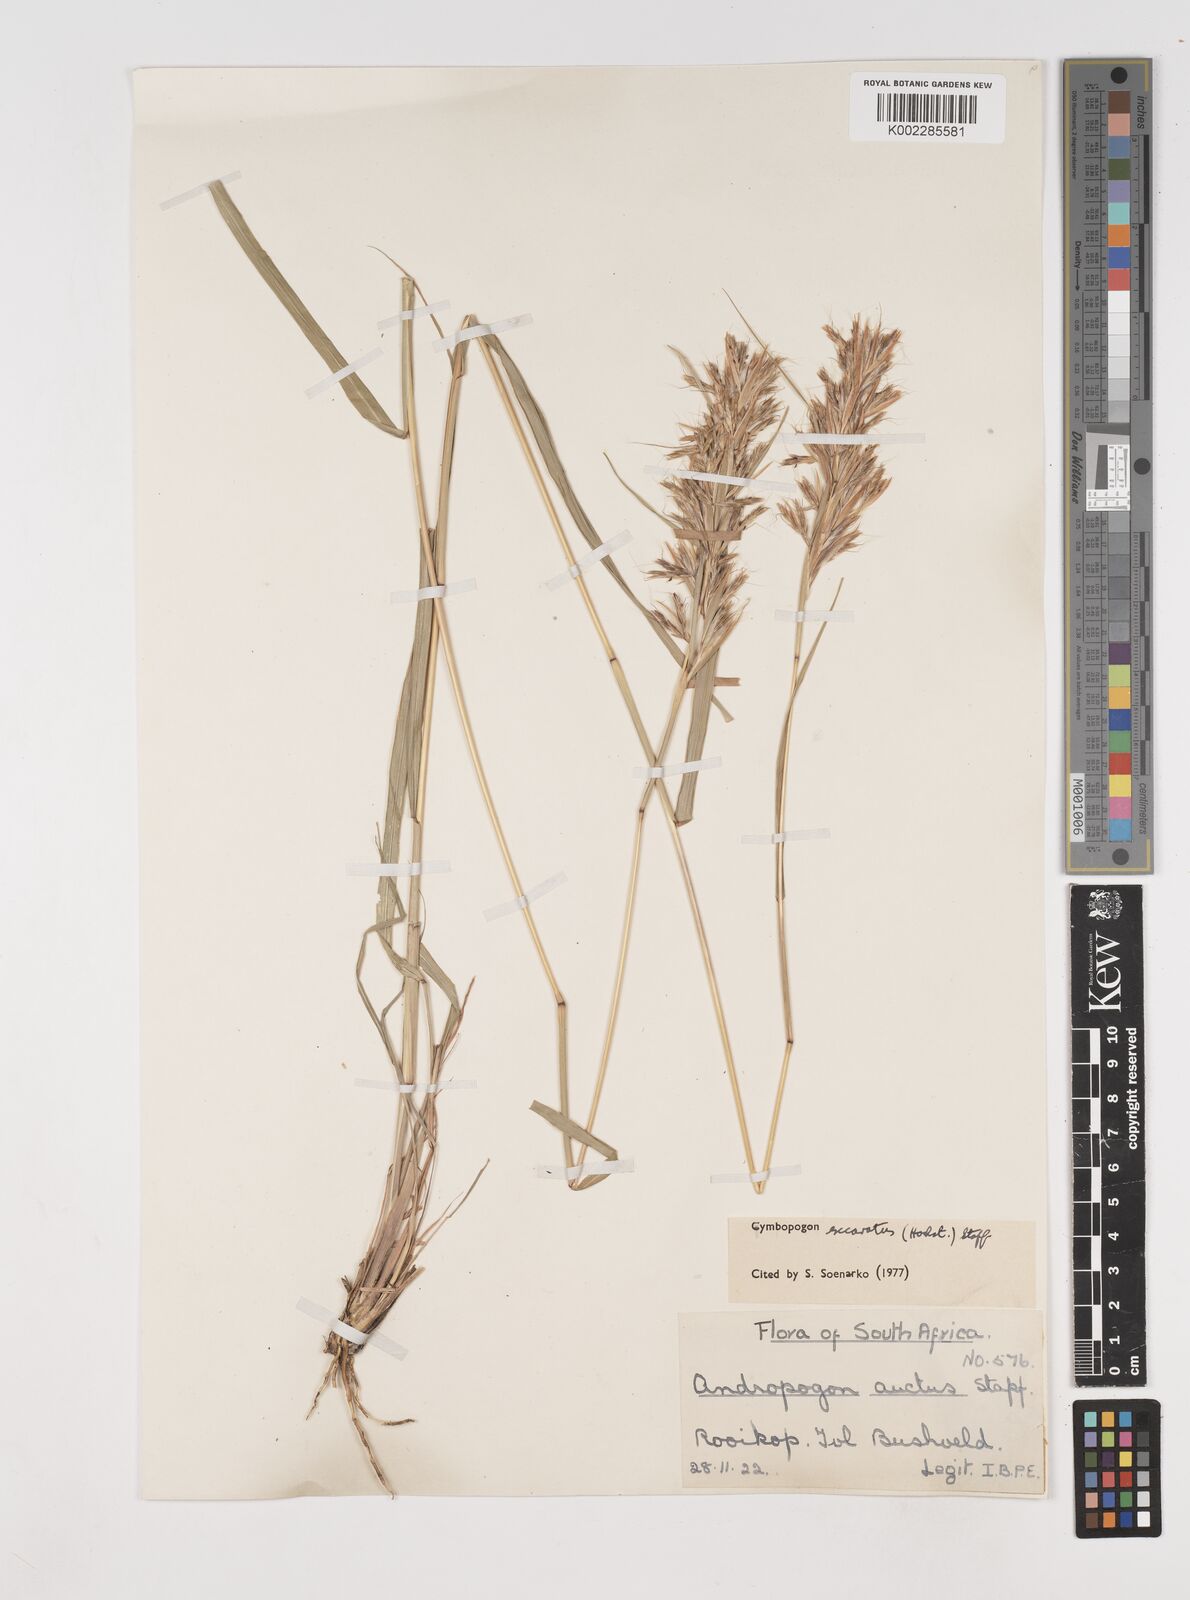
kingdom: Plantae
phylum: Tracheophyta
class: Liliopsida
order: Poales
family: Poaceae
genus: Cymbopogon
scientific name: Cymbopogon caesius
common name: Kachi grass
